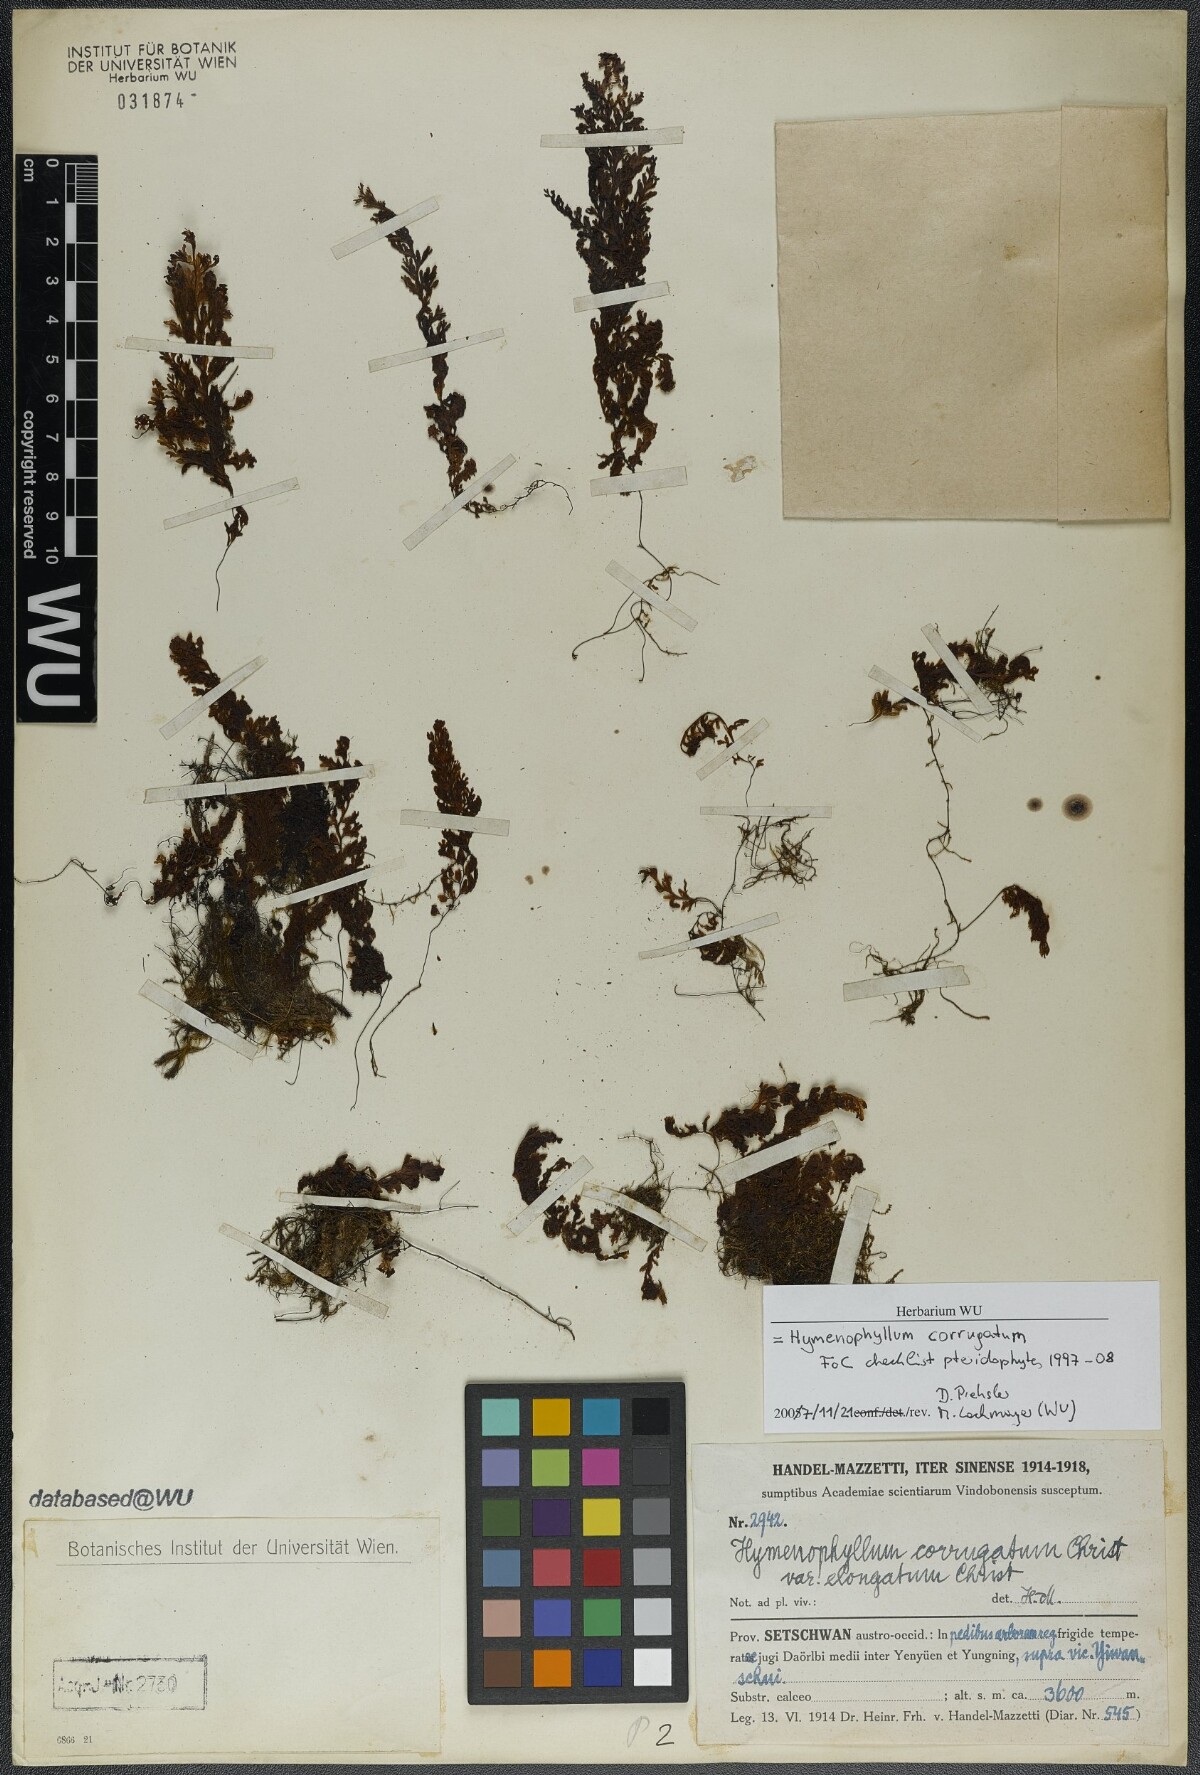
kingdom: Plantae
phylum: Tracheophyta
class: Polypodiopsida
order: Hymenophyllales
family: Hymenophyllaceae
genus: Hymenophyllum
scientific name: Hymenophyllum corrugatum
